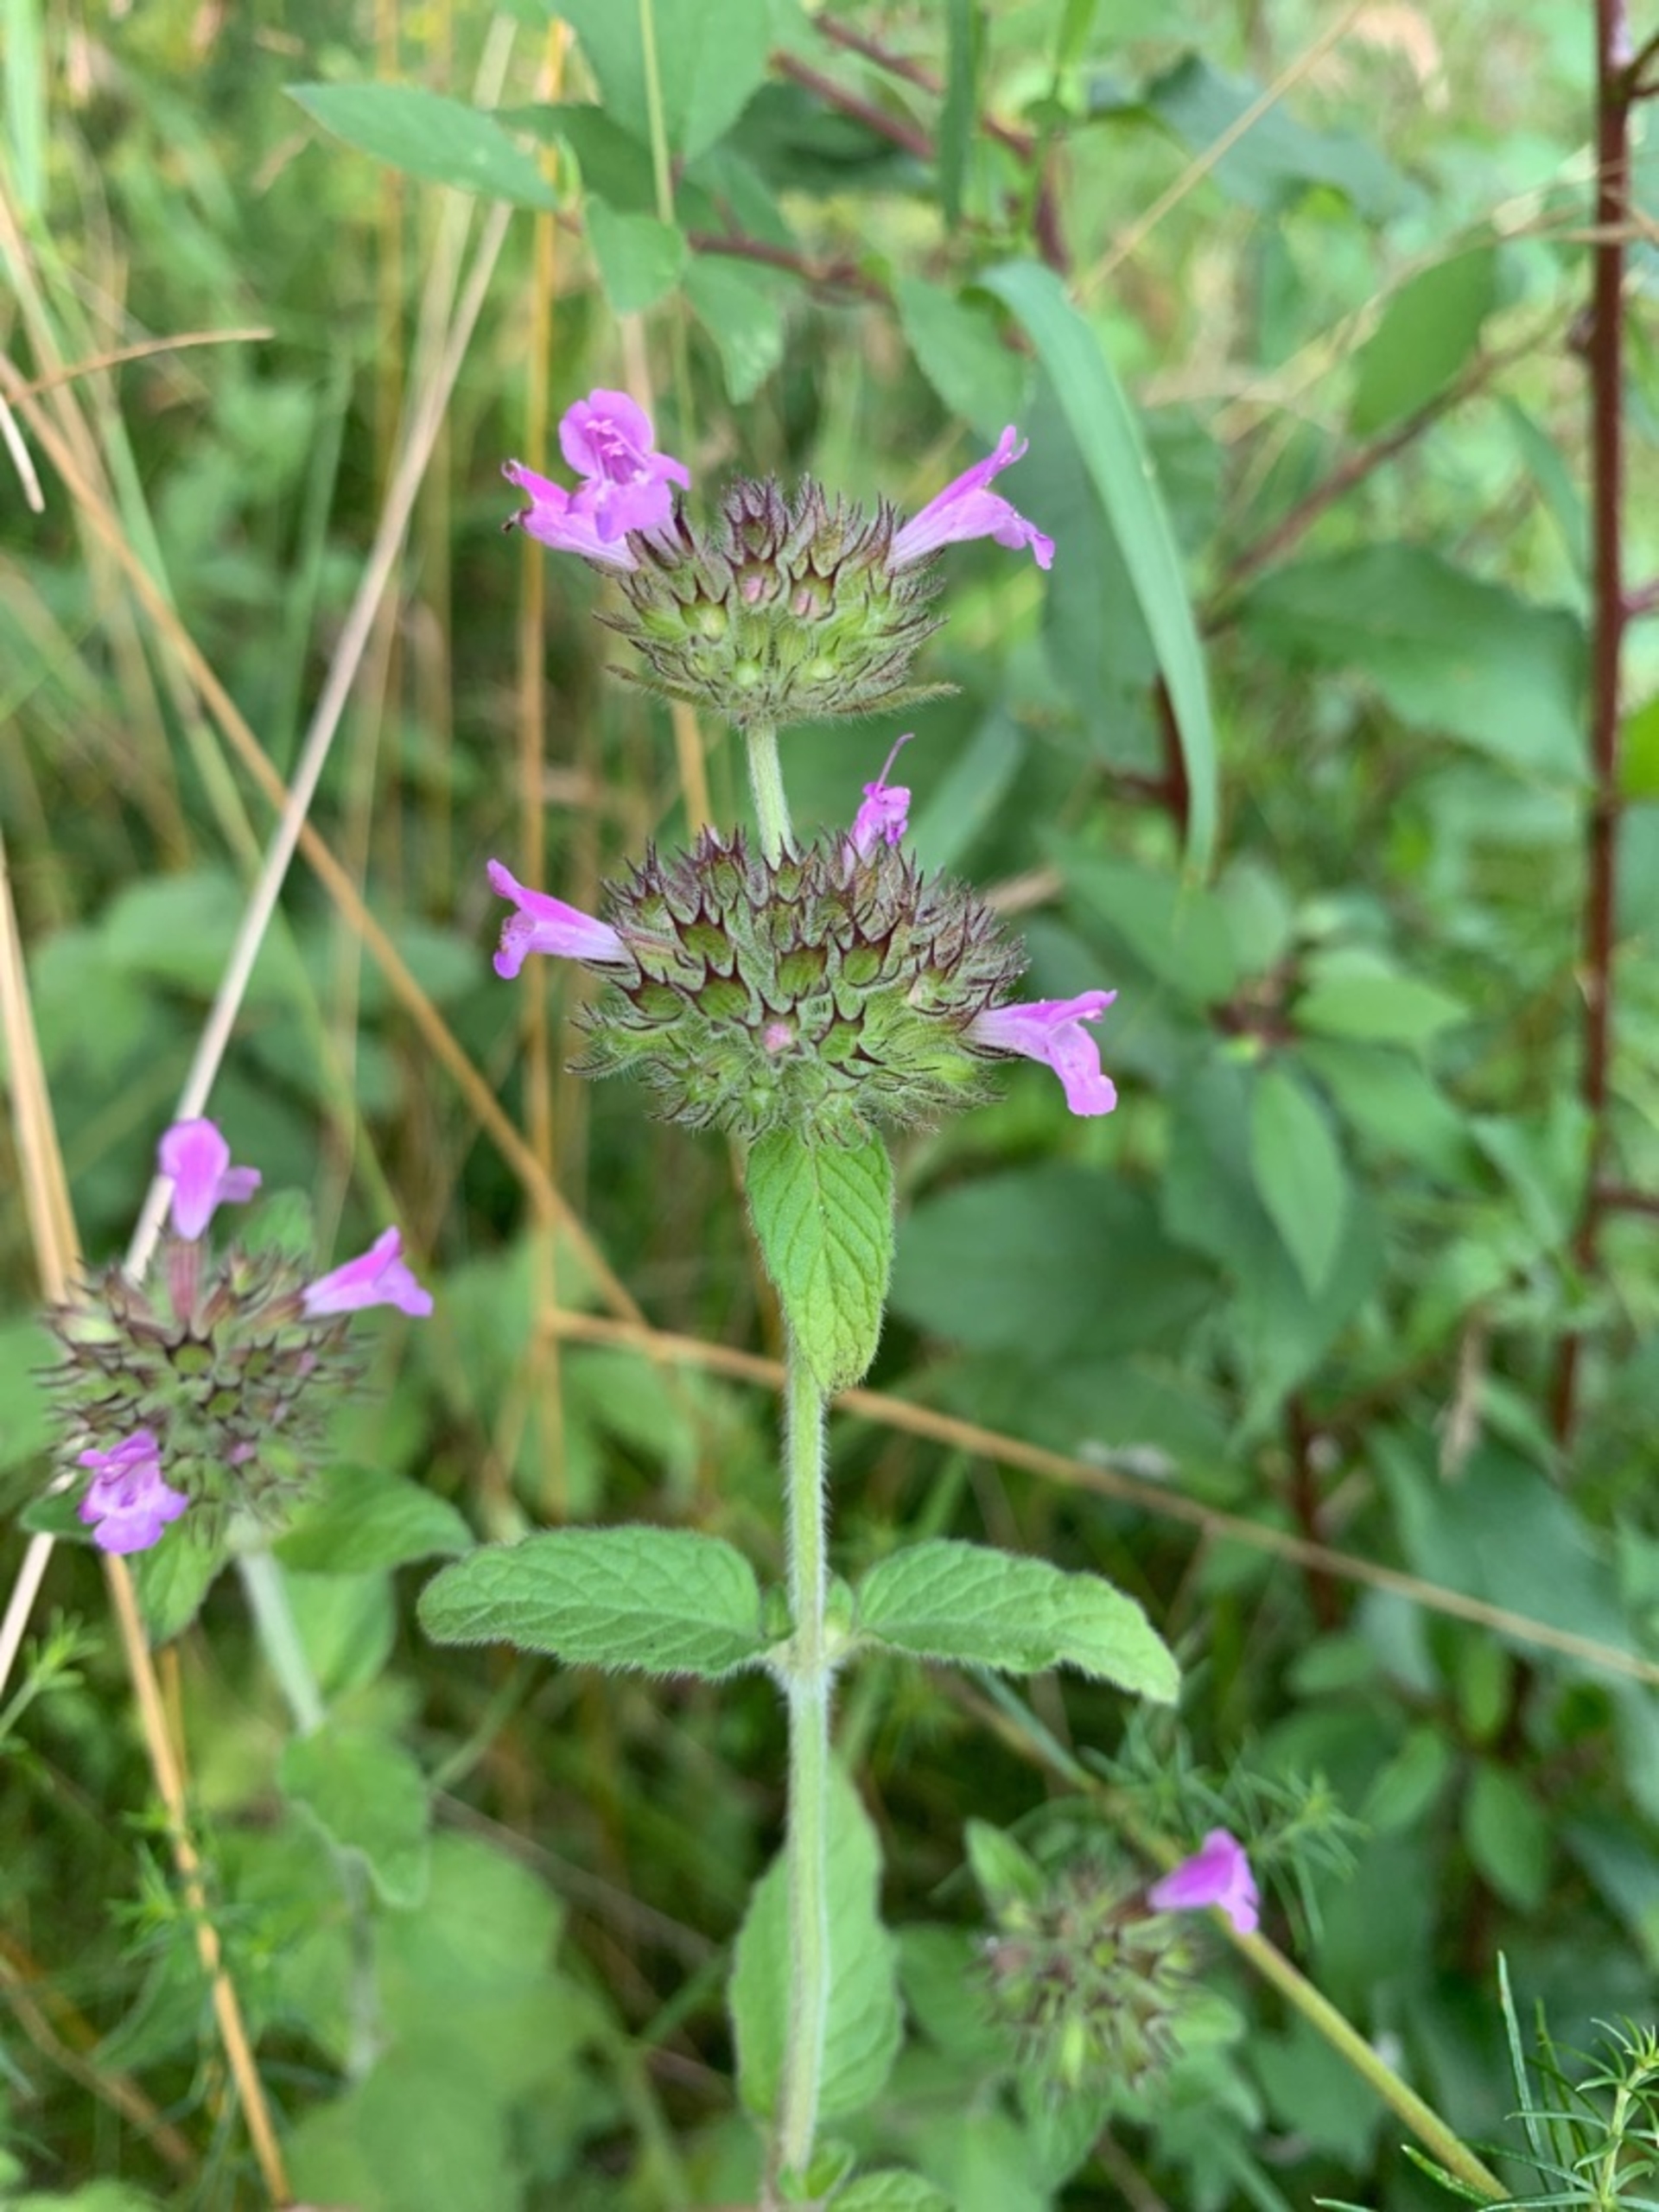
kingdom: Plantae
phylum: Tracheophyta
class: Magnoliopsida
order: Lamiales
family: Lamiaceae
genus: Clinopodium
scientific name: Clinopodium vulgare
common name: Kransbørste
